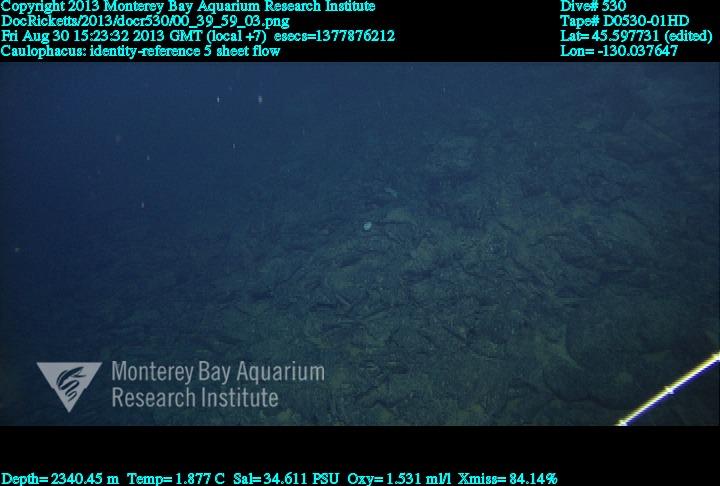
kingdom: Animalia
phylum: Porifera
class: Hexactinellida
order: Lyssacinosida
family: Rossellidae
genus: Caulophacus
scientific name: Caulophacus
